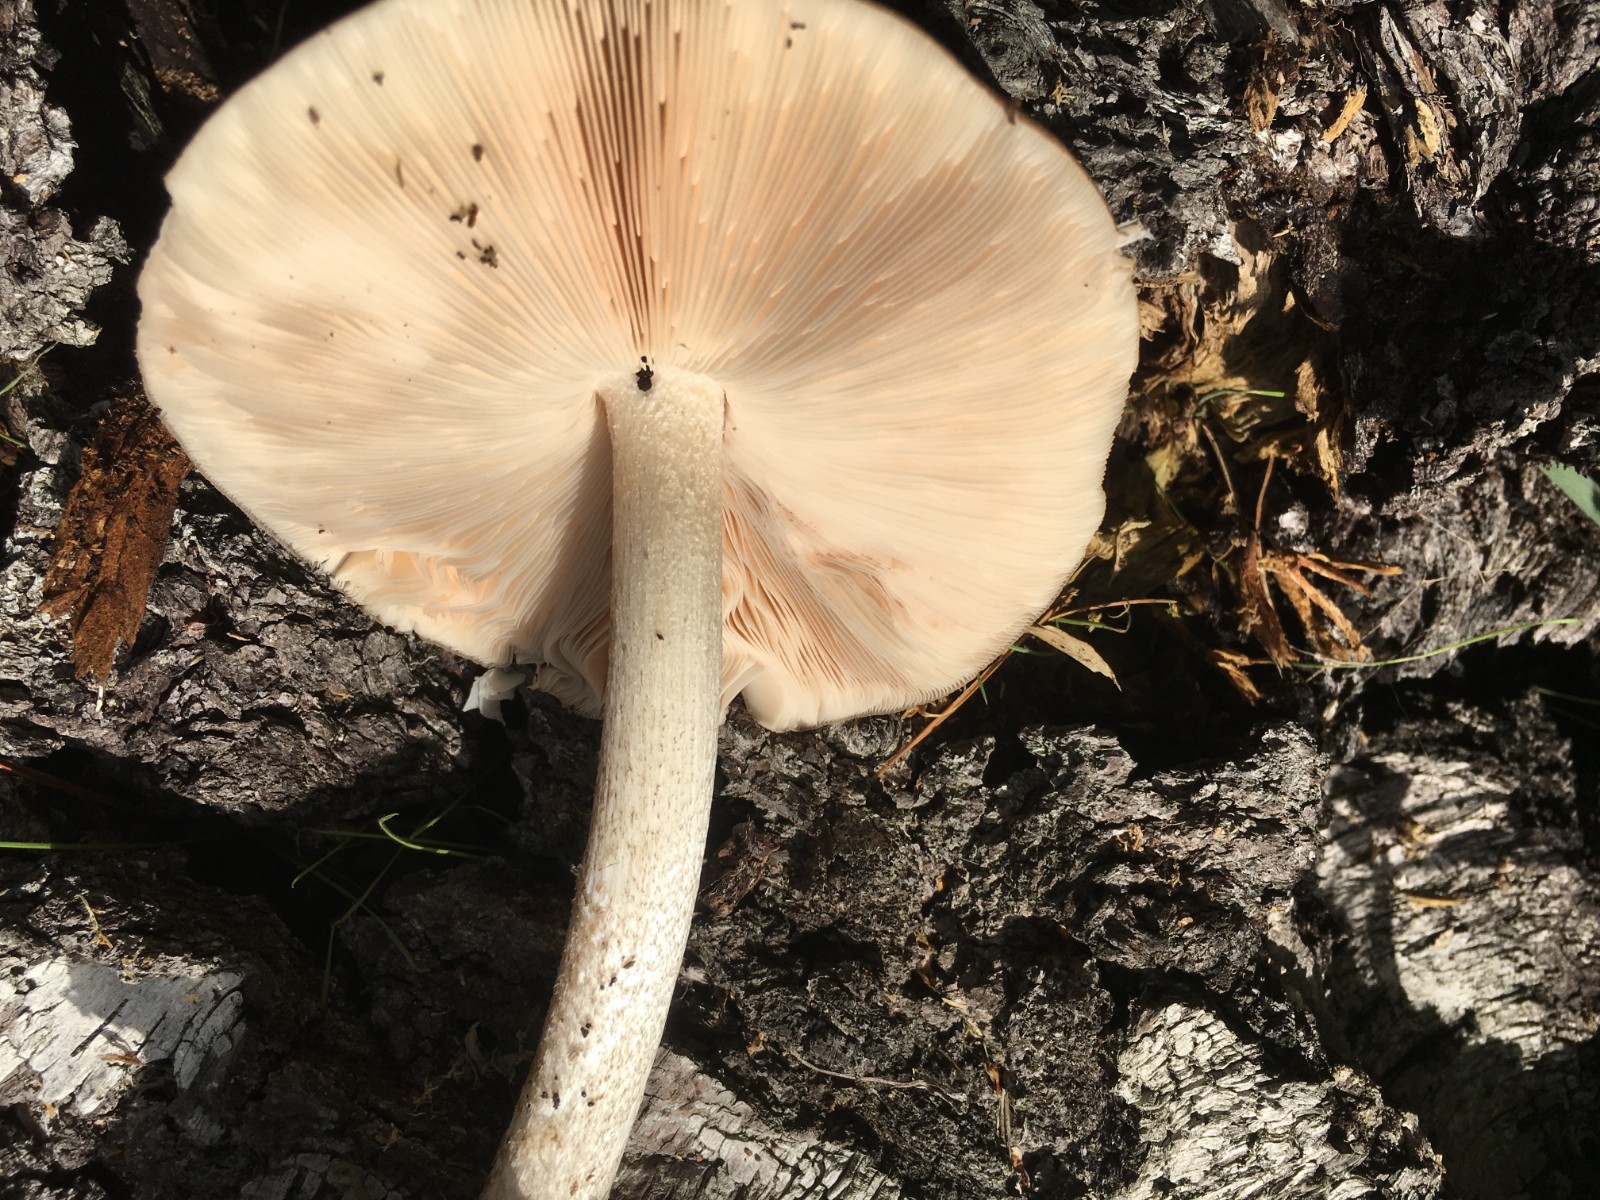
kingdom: Fungi
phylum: Basidiomycota
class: Agaricomycetes
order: Agaricales
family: Pluteaceae
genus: Pluteus
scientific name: Pluteus cervinus
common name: sodfarvet skærmhat
